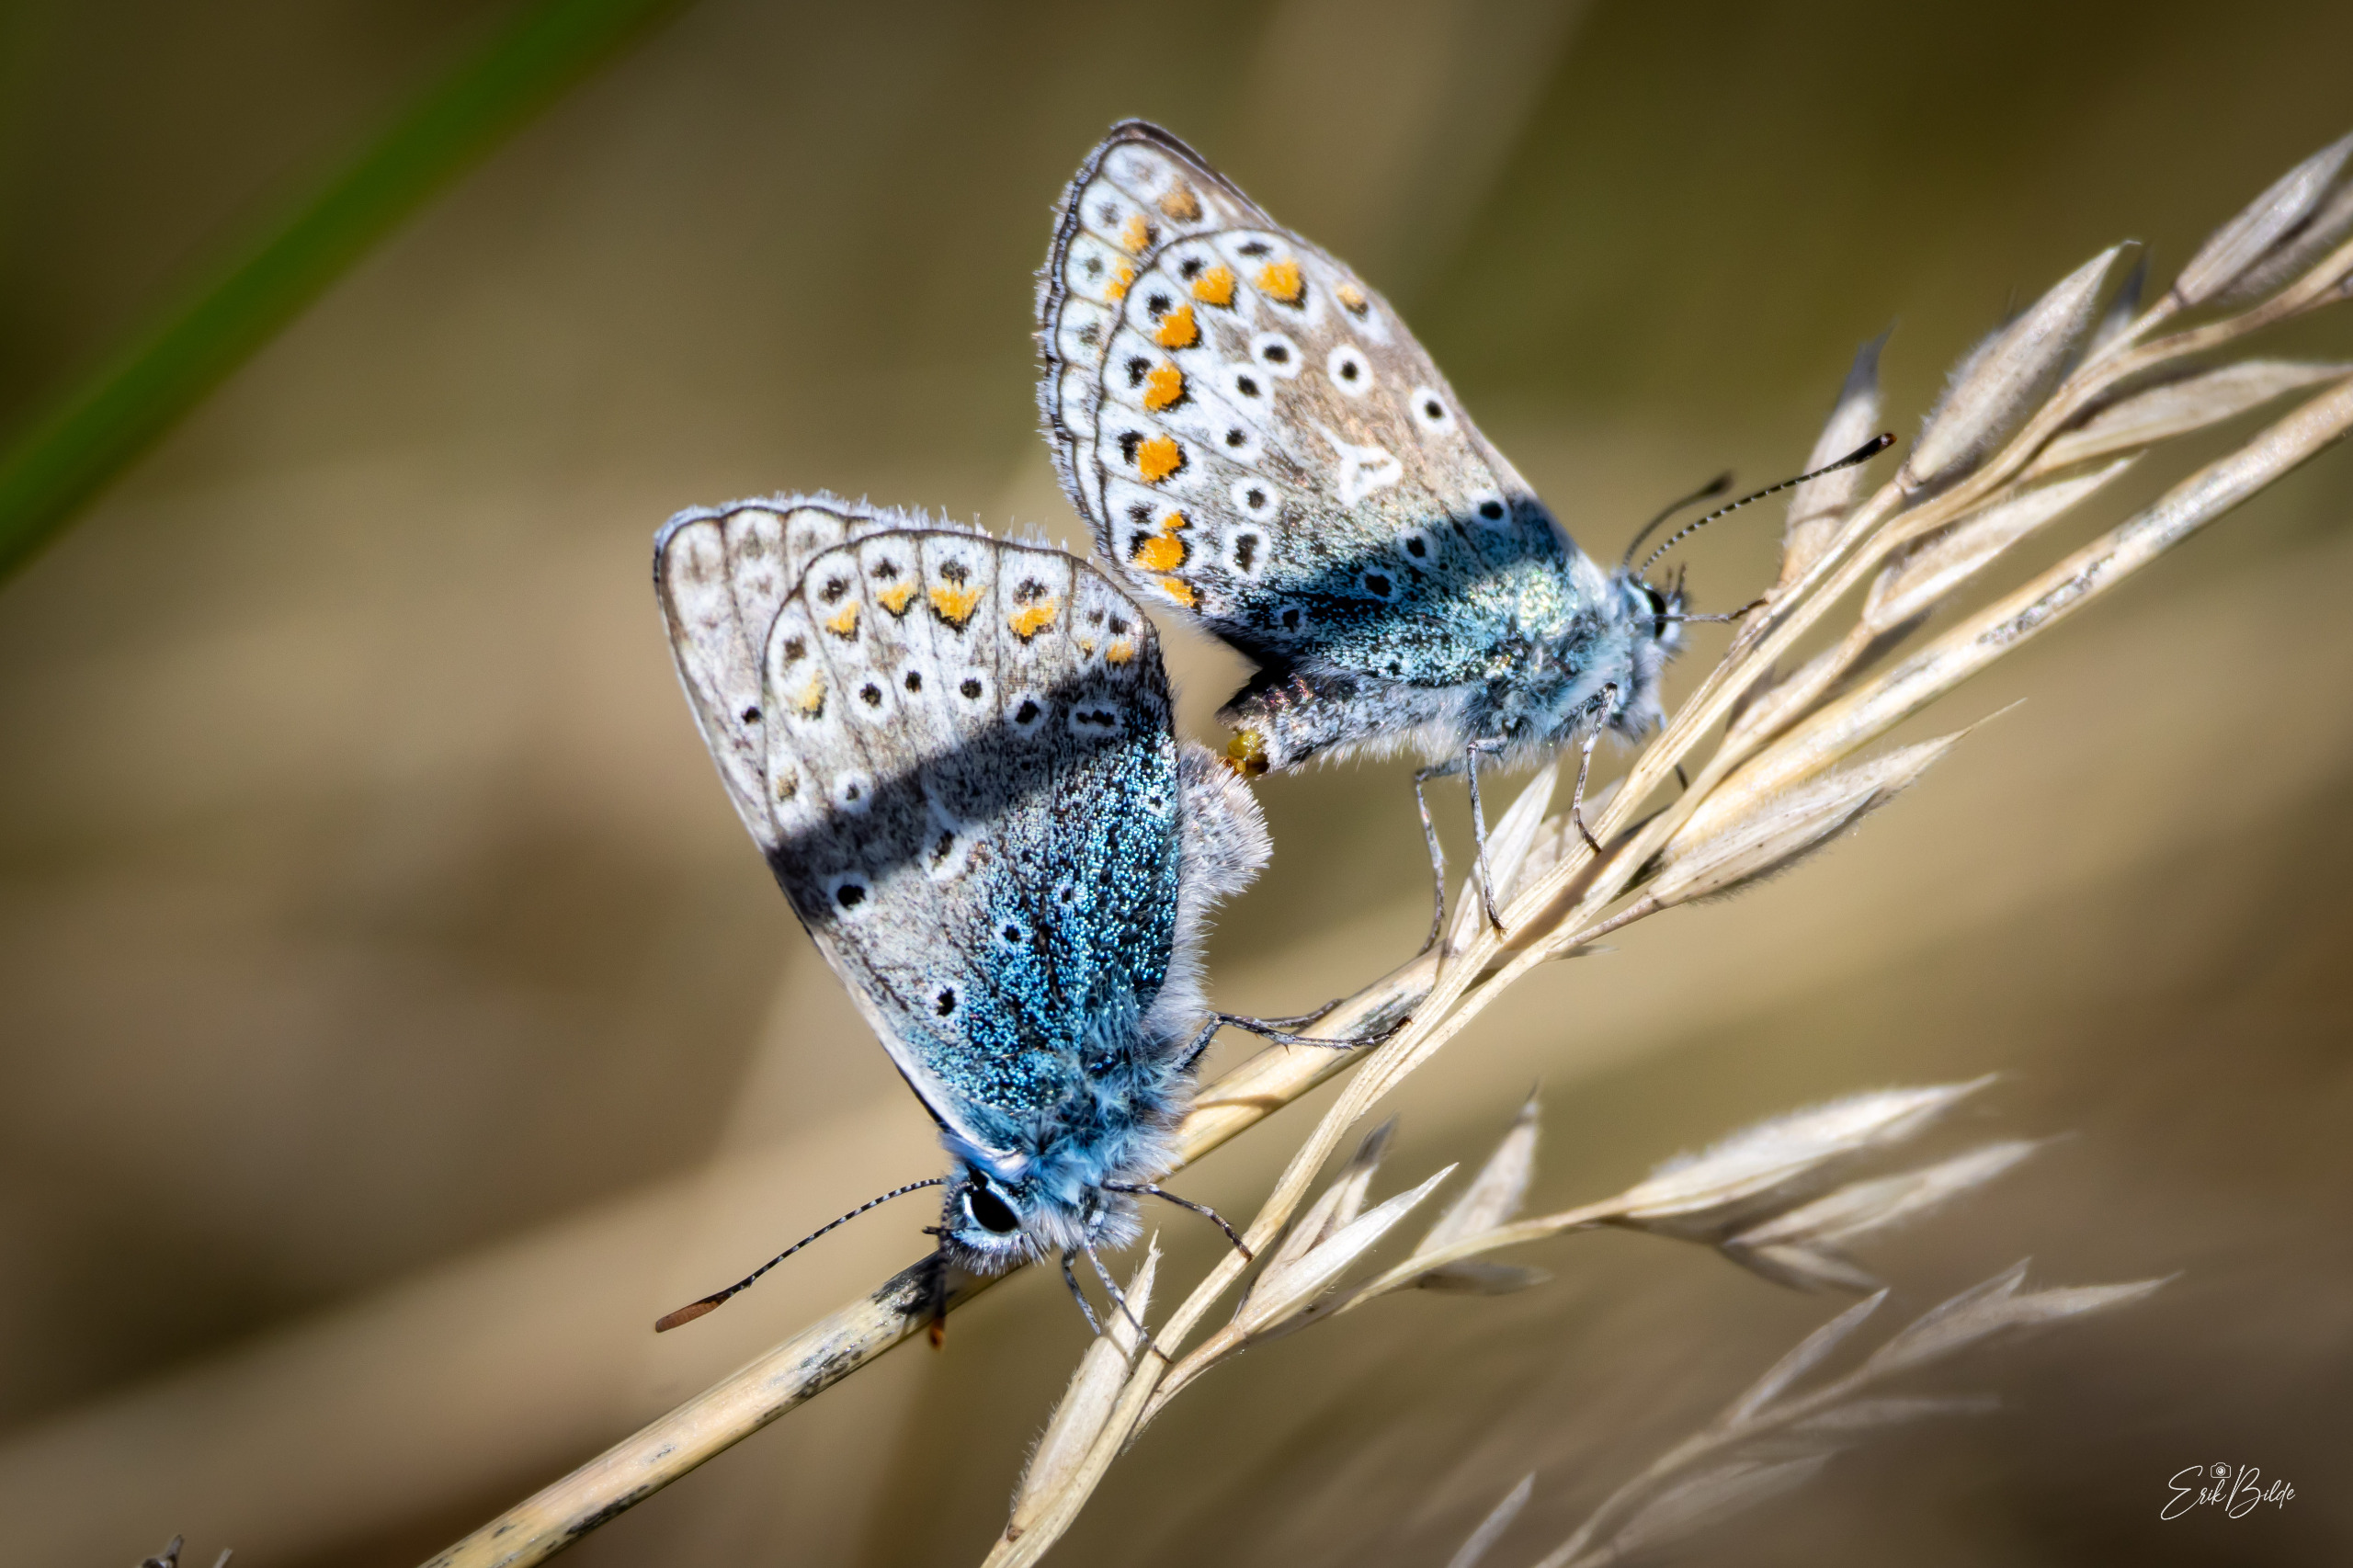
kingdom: Animalia
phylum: Arthropoda
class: Insecta
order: Lepidoptera
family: Lycaenidae
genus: Polyommatus
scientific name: Polyommatus icarus
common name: Almindelig blåfugl
